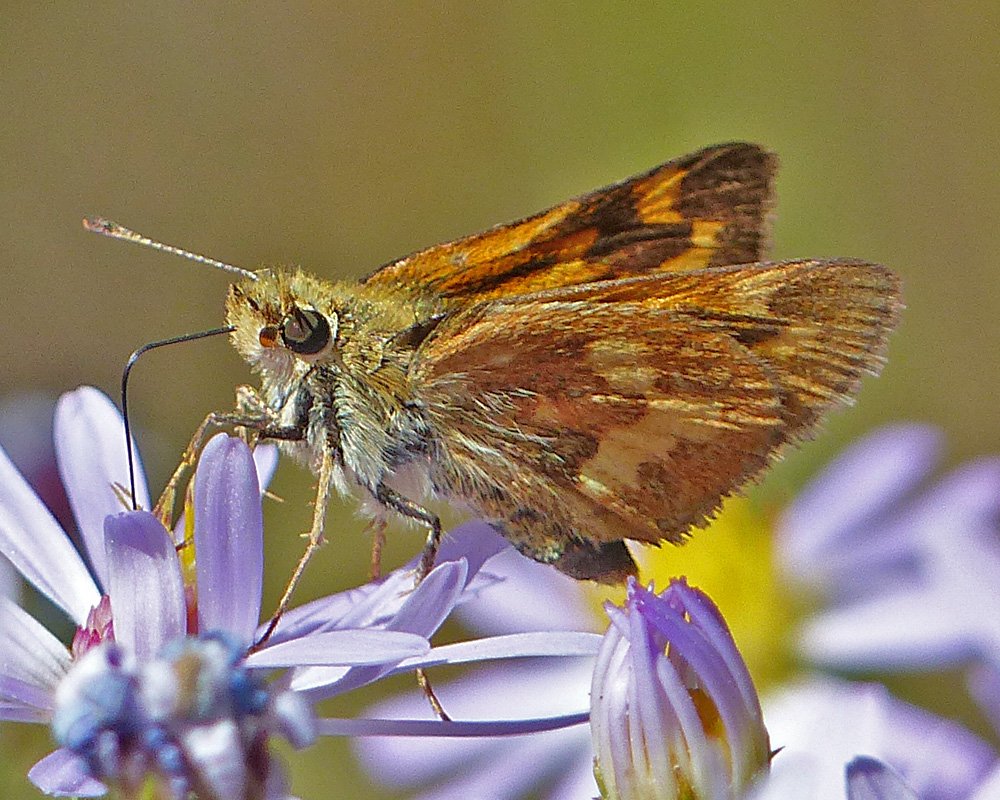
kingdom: Animalia
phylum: Arthropoda
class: Insecta
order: Lepidoptera
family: Hesperiidae
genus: Ochlodes
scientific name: Ochlodes sylvanoides
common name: Woodland Skipper
